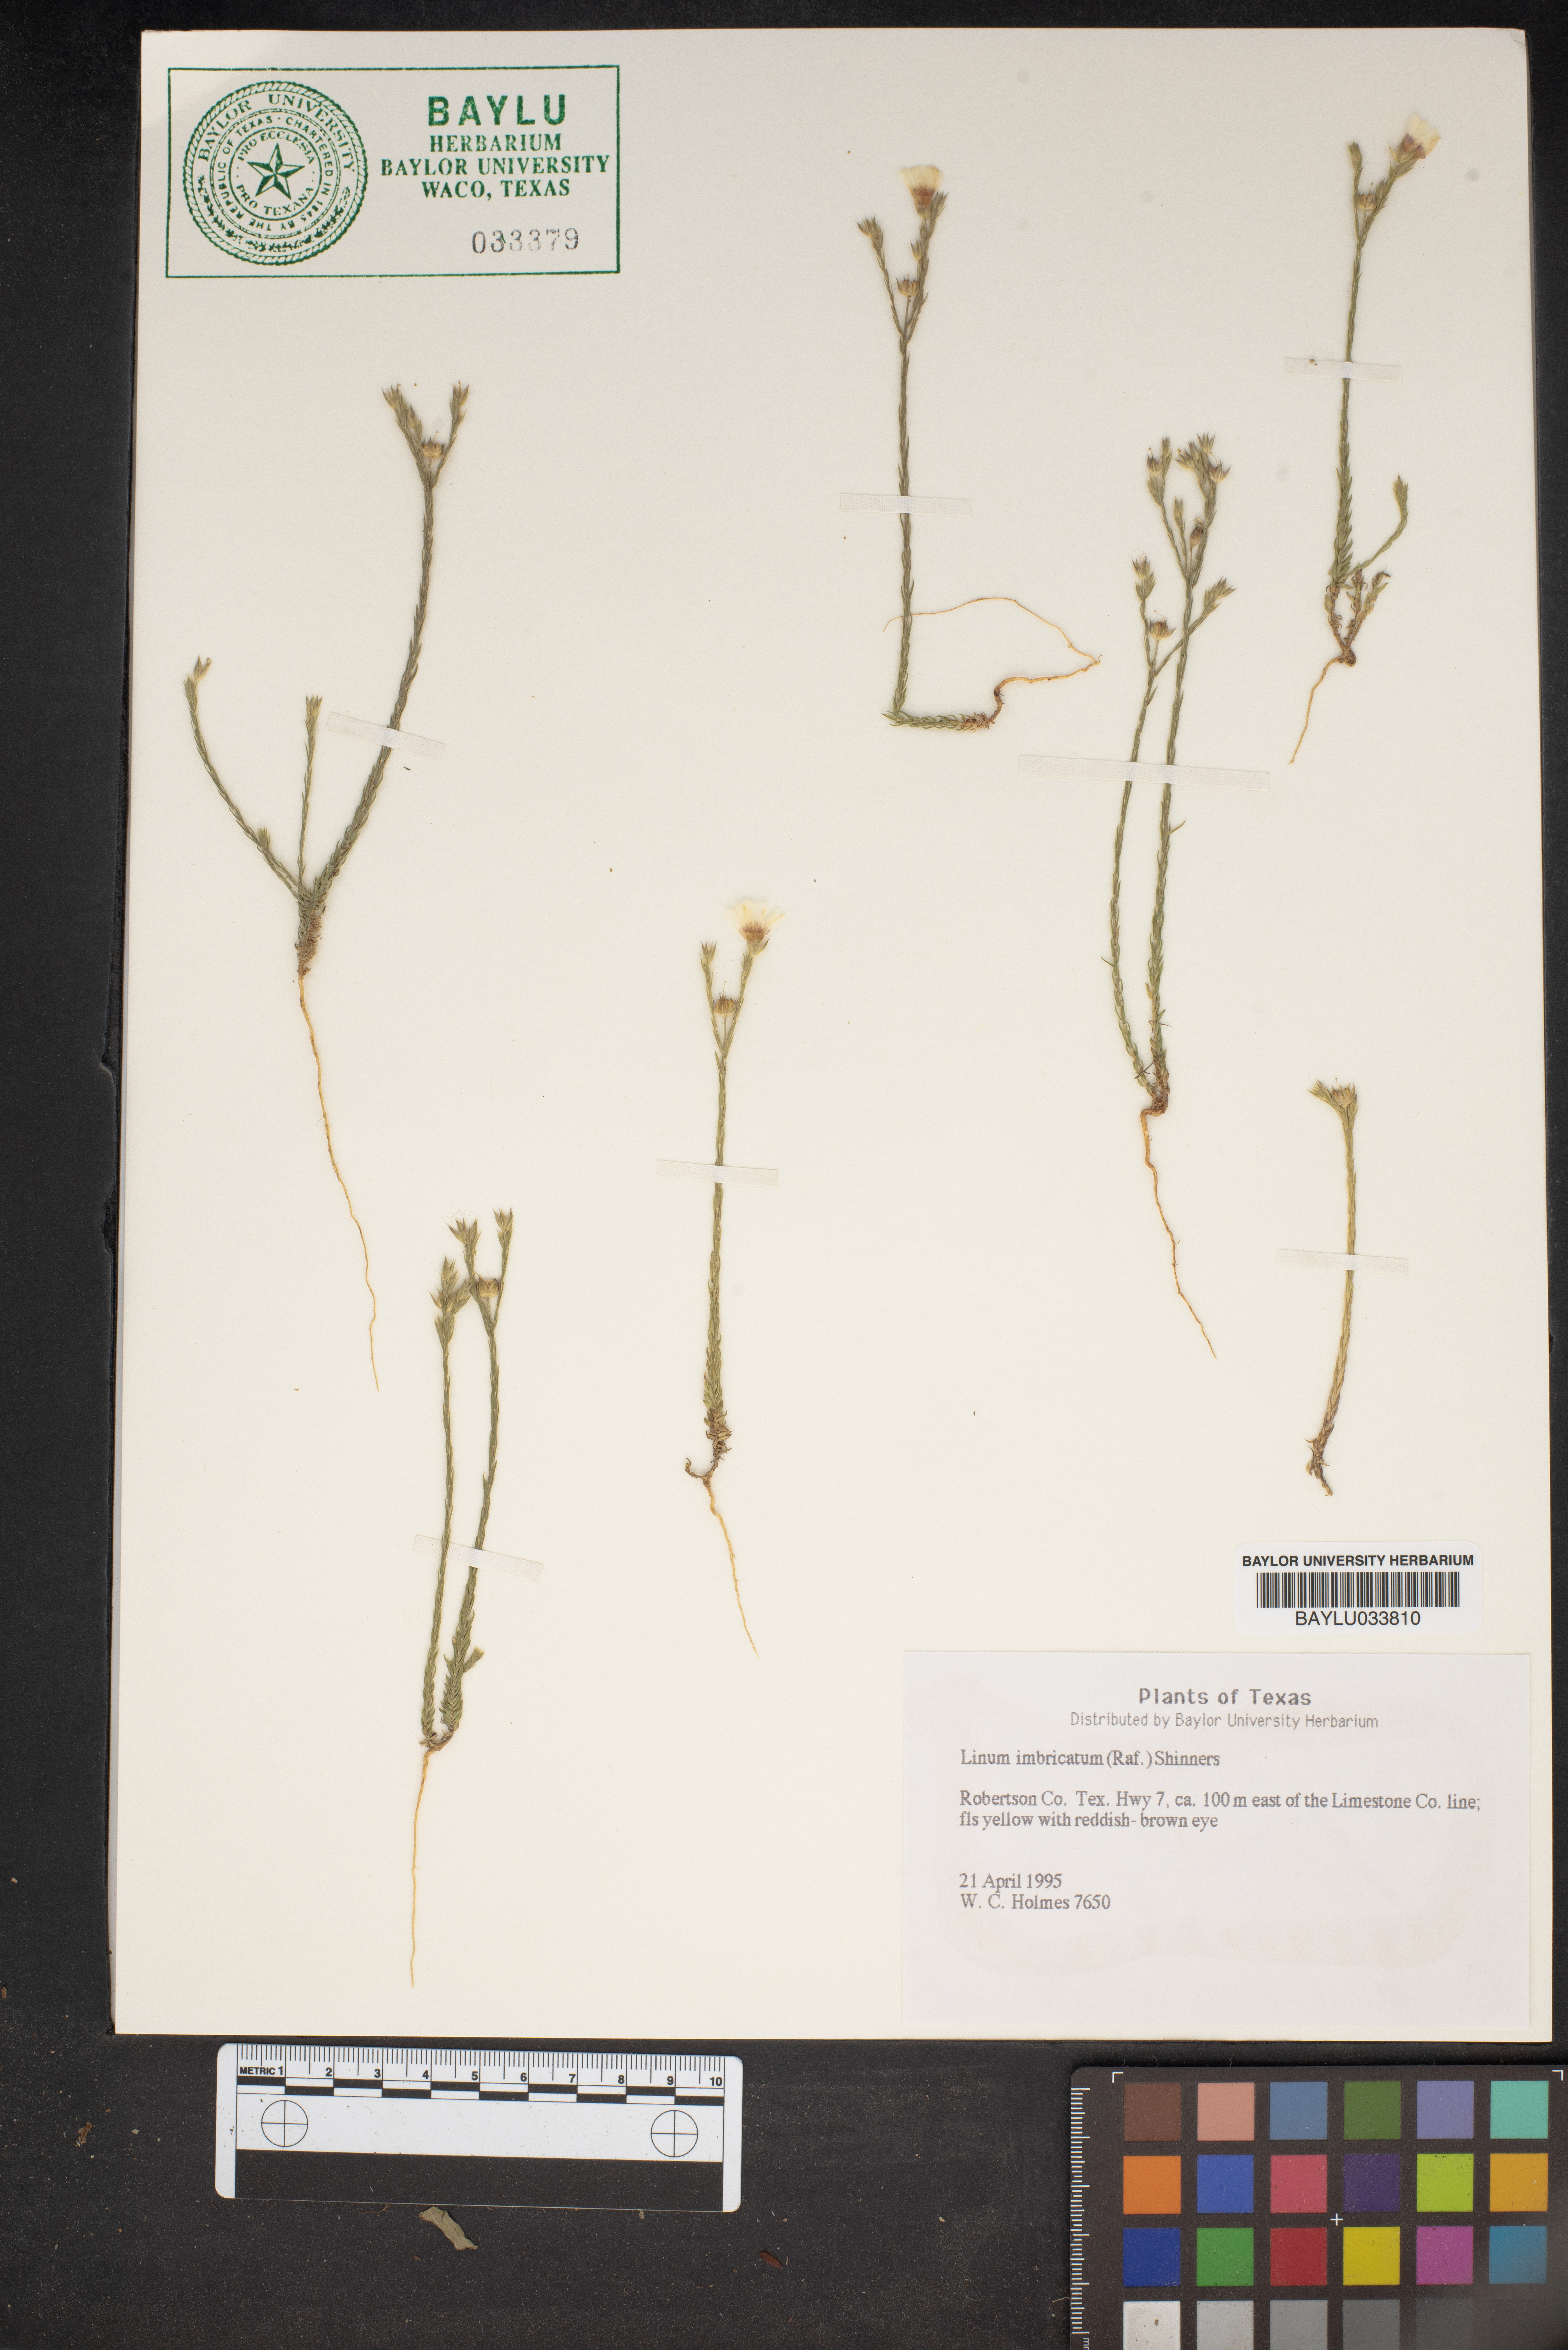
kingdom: Plantae
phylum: Tracheophyta
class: Magnoliopsida
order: Malpighiales
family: Linaceae
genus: Linum
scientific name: Linum imbricatum
